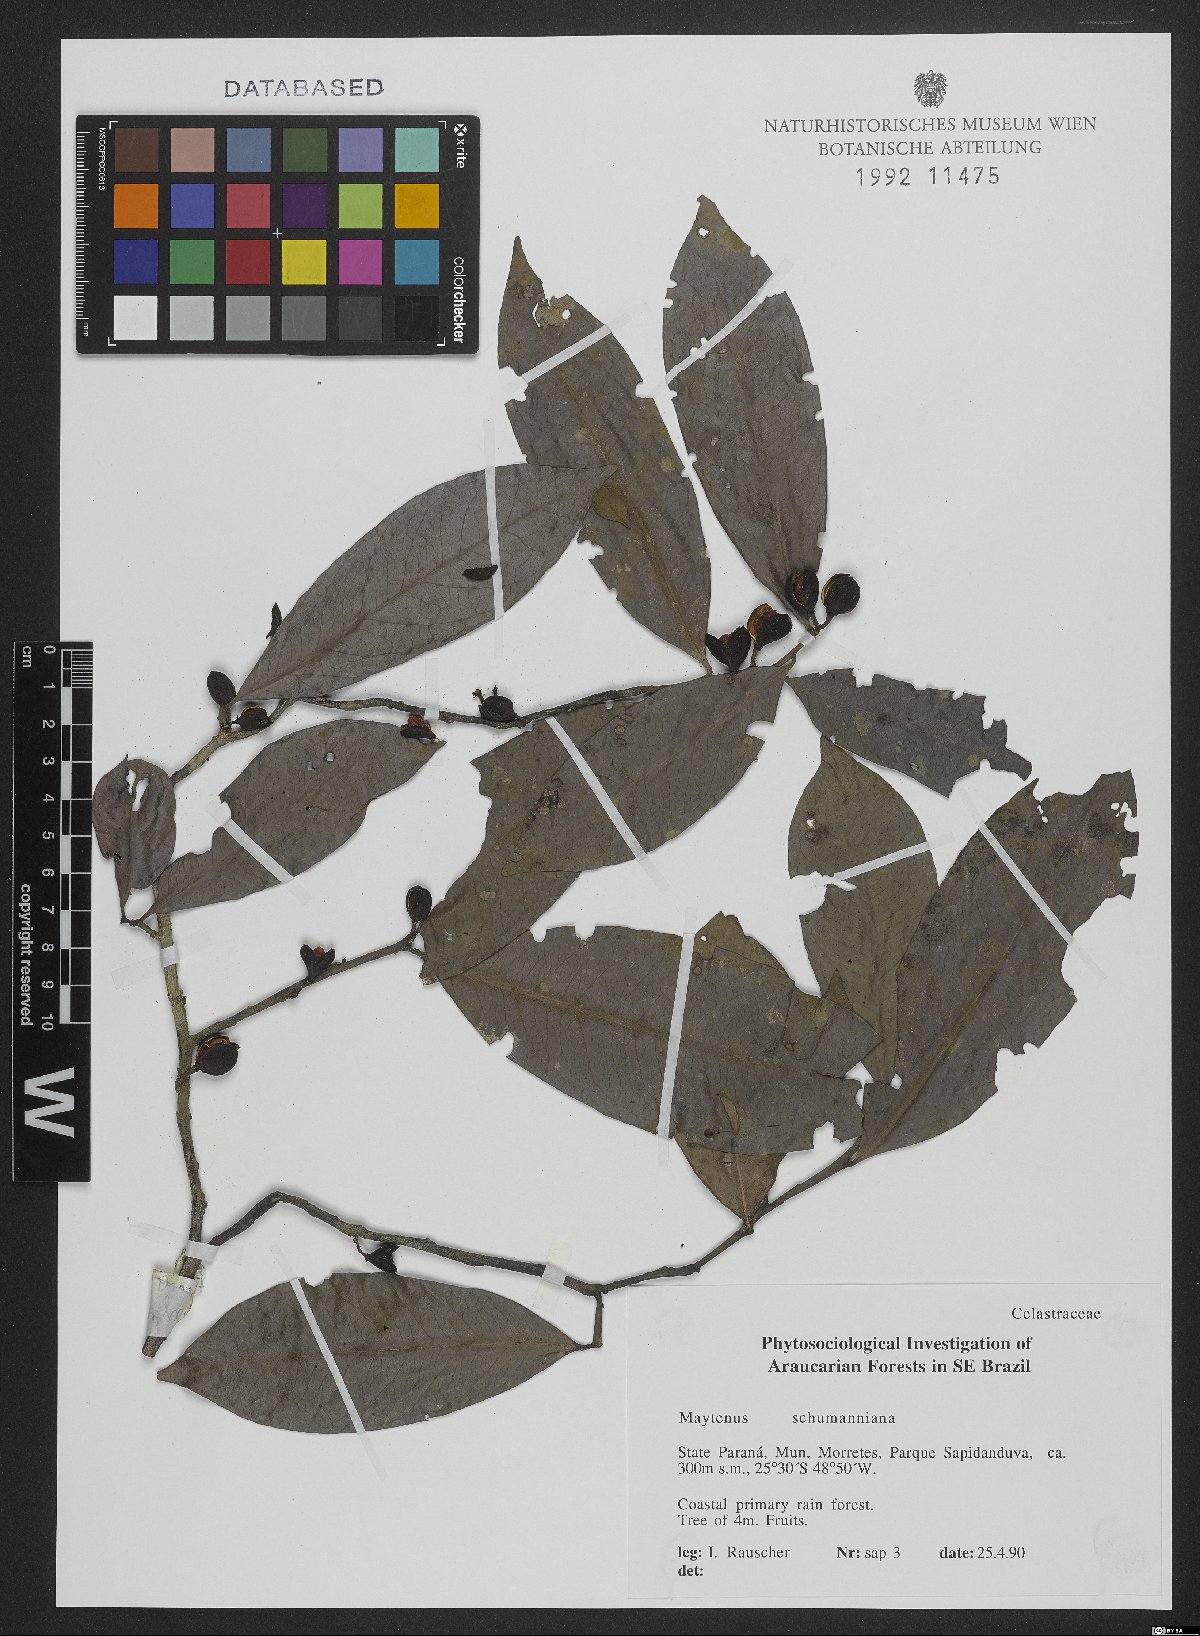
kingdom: Plantae
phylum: Tracheophyta
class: Magnoliopsida
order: Celastrales
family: Celastraceae
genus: Monteverdia
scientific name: Monteverdia schumanniana
